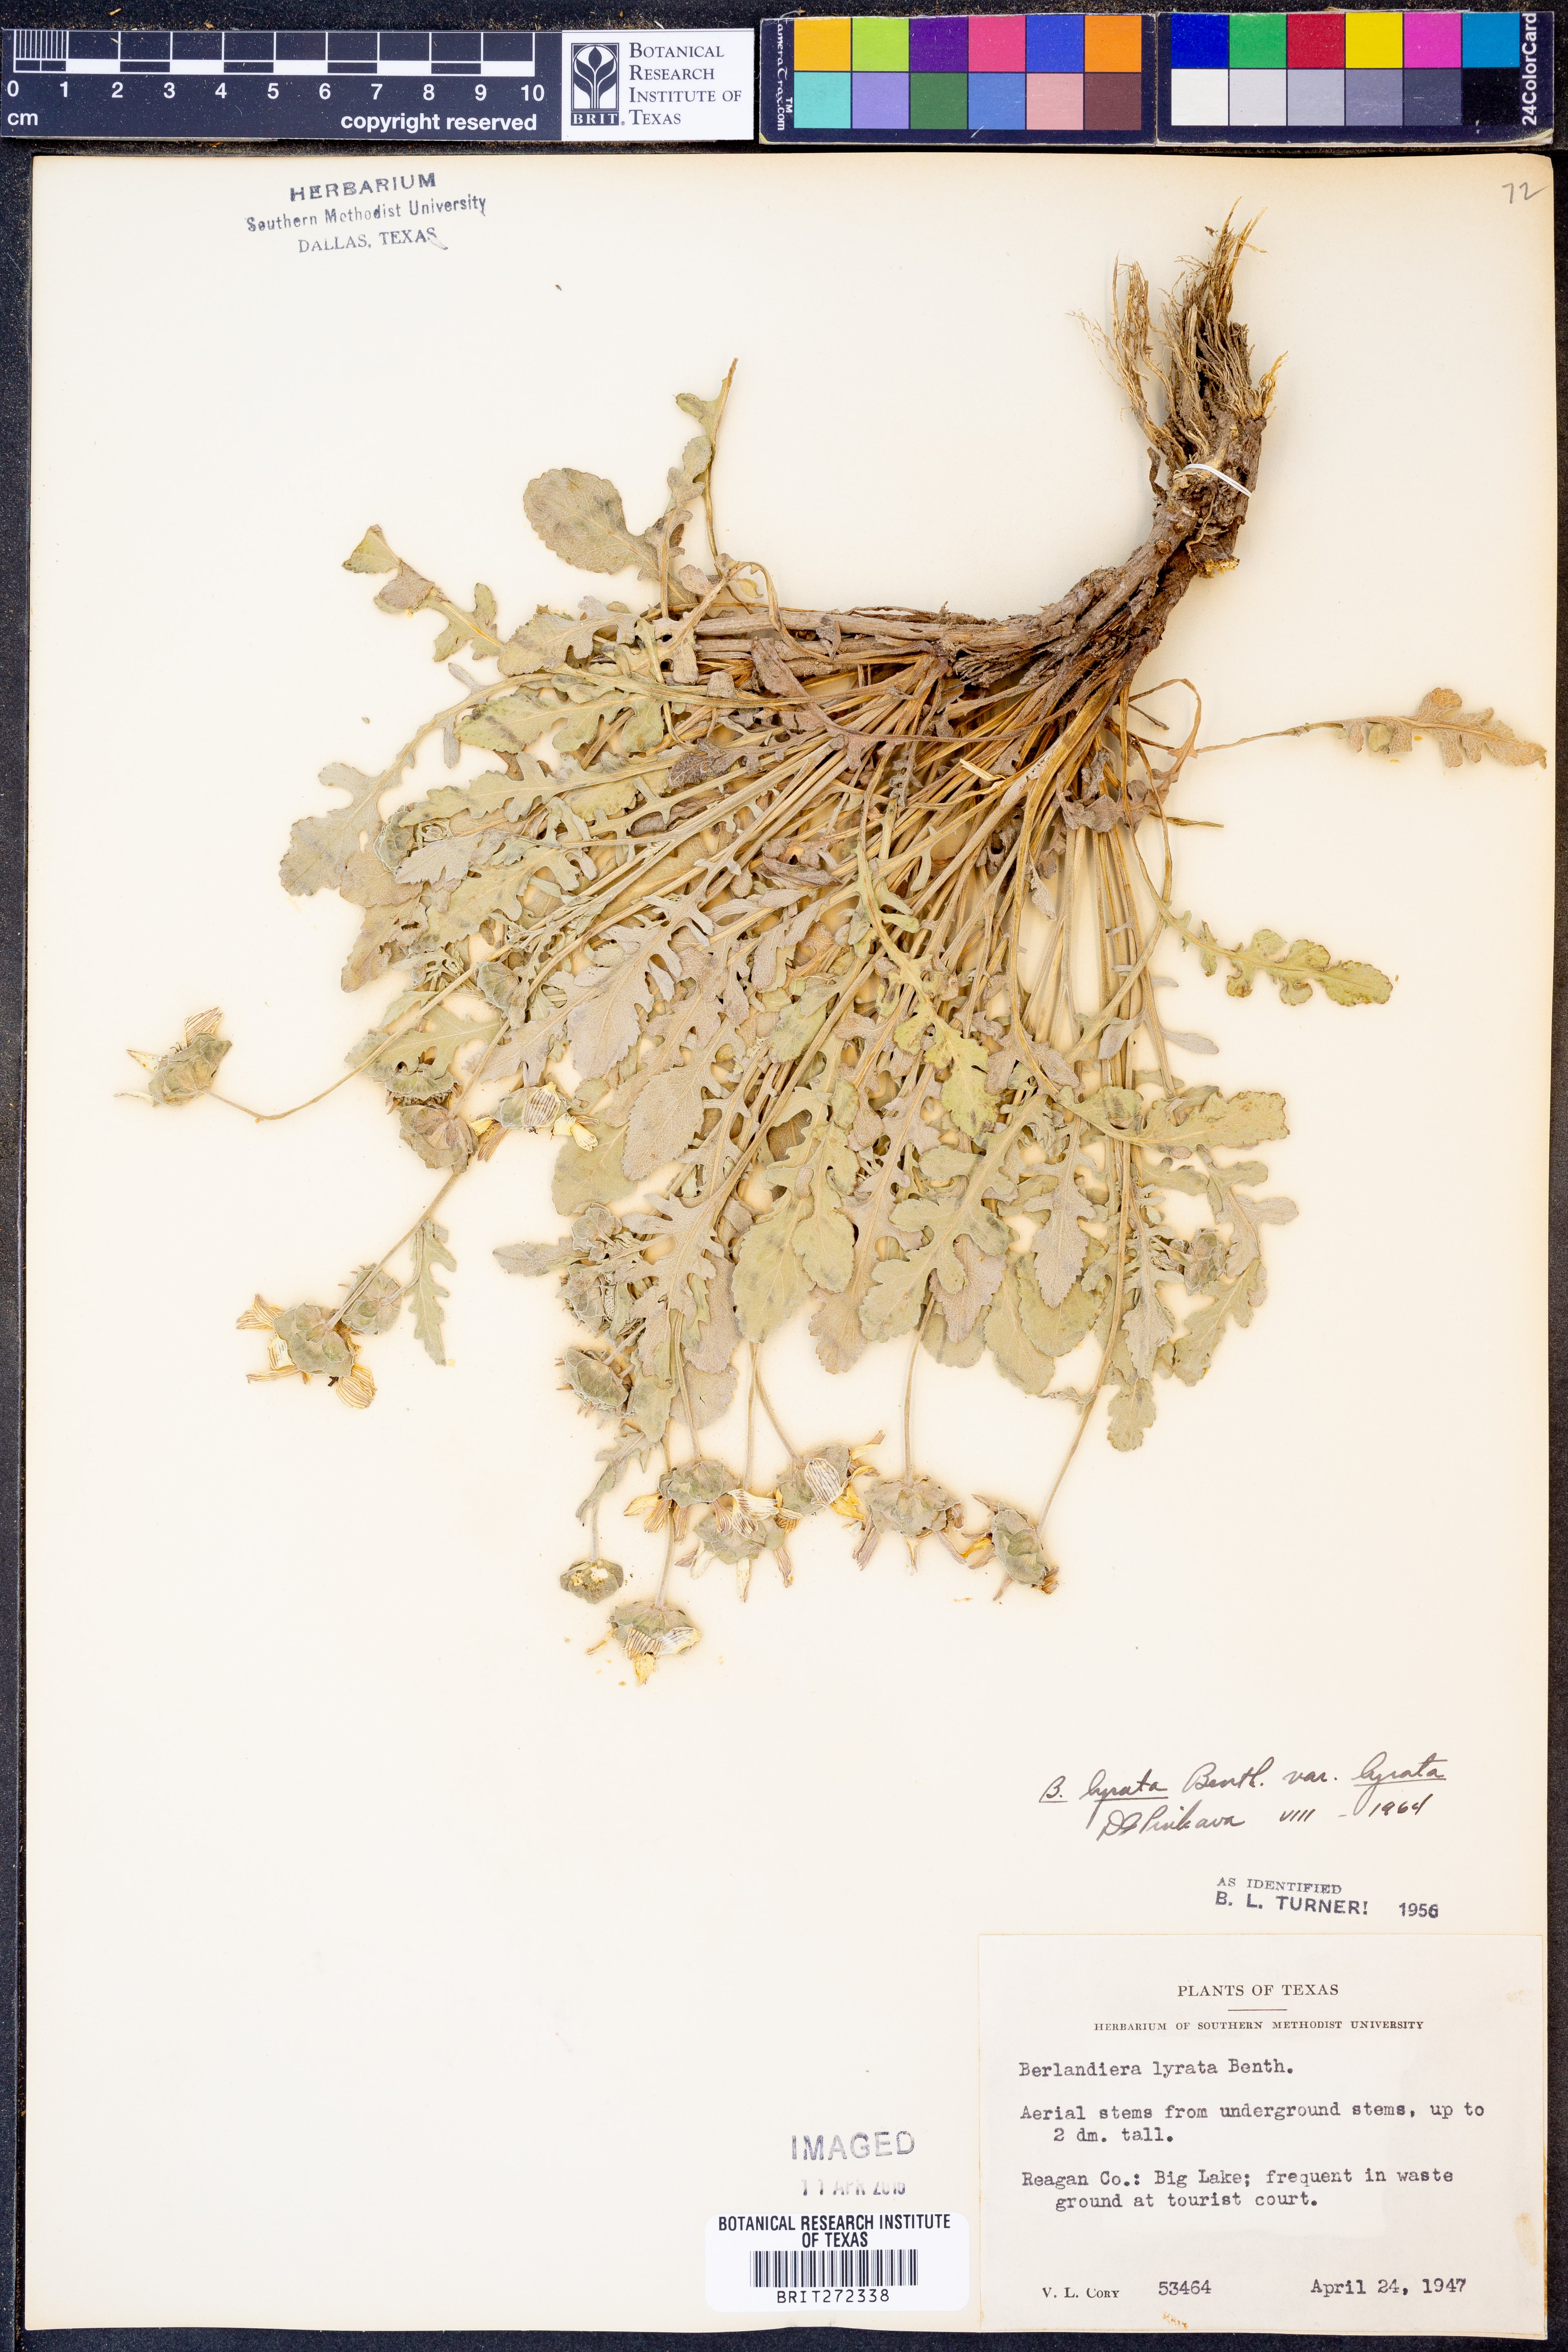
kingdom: Plantae
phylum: Tracheophyta
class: Magnoliopsida
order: Asterales
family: Asteraceae
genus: Berlandiera
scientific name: Berlandiera lyrata
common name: Chocolate-flower
